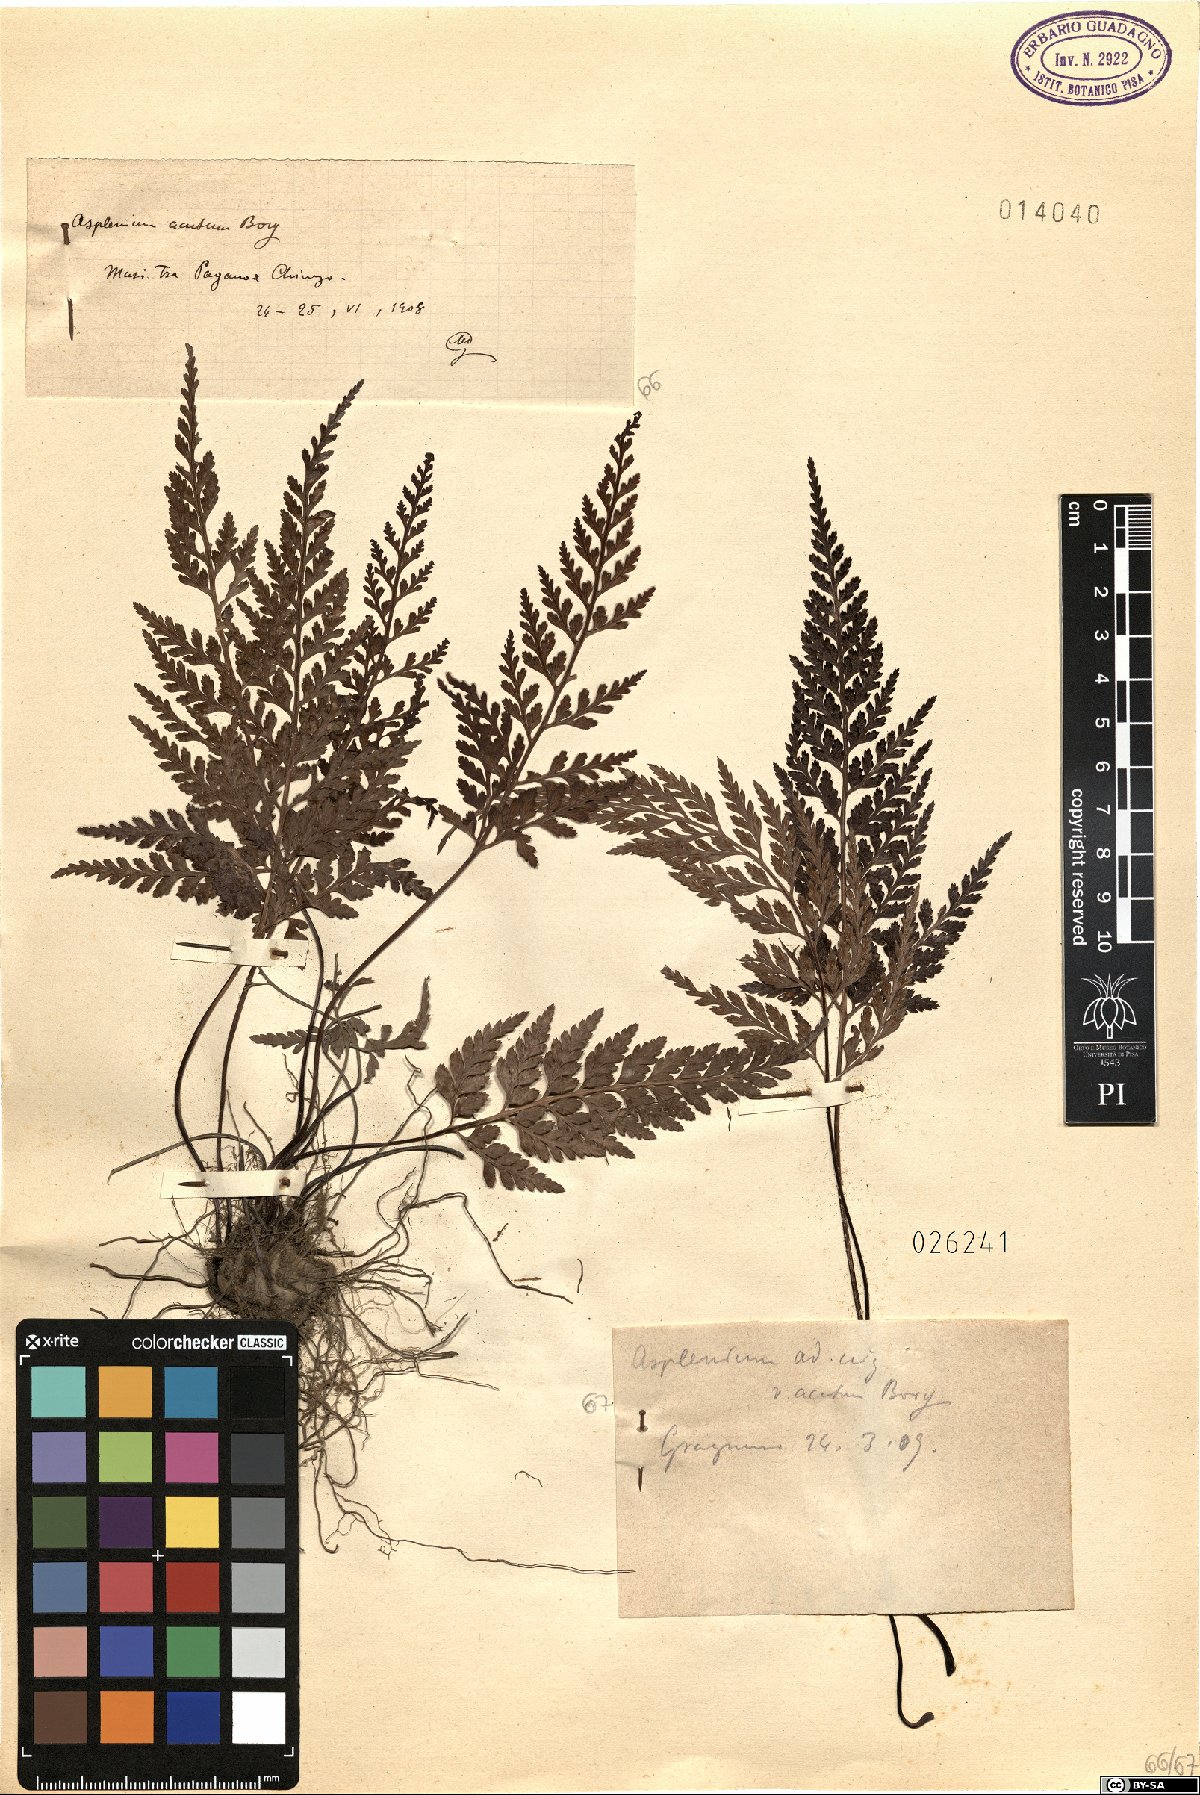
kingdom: Plantae
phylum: Tracheophyta
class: Polypodiopsida
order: Polypodiales
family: Aspleniaceae
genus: Asplenium
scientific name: Asplenium onopteris
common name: Irish spleenwort
